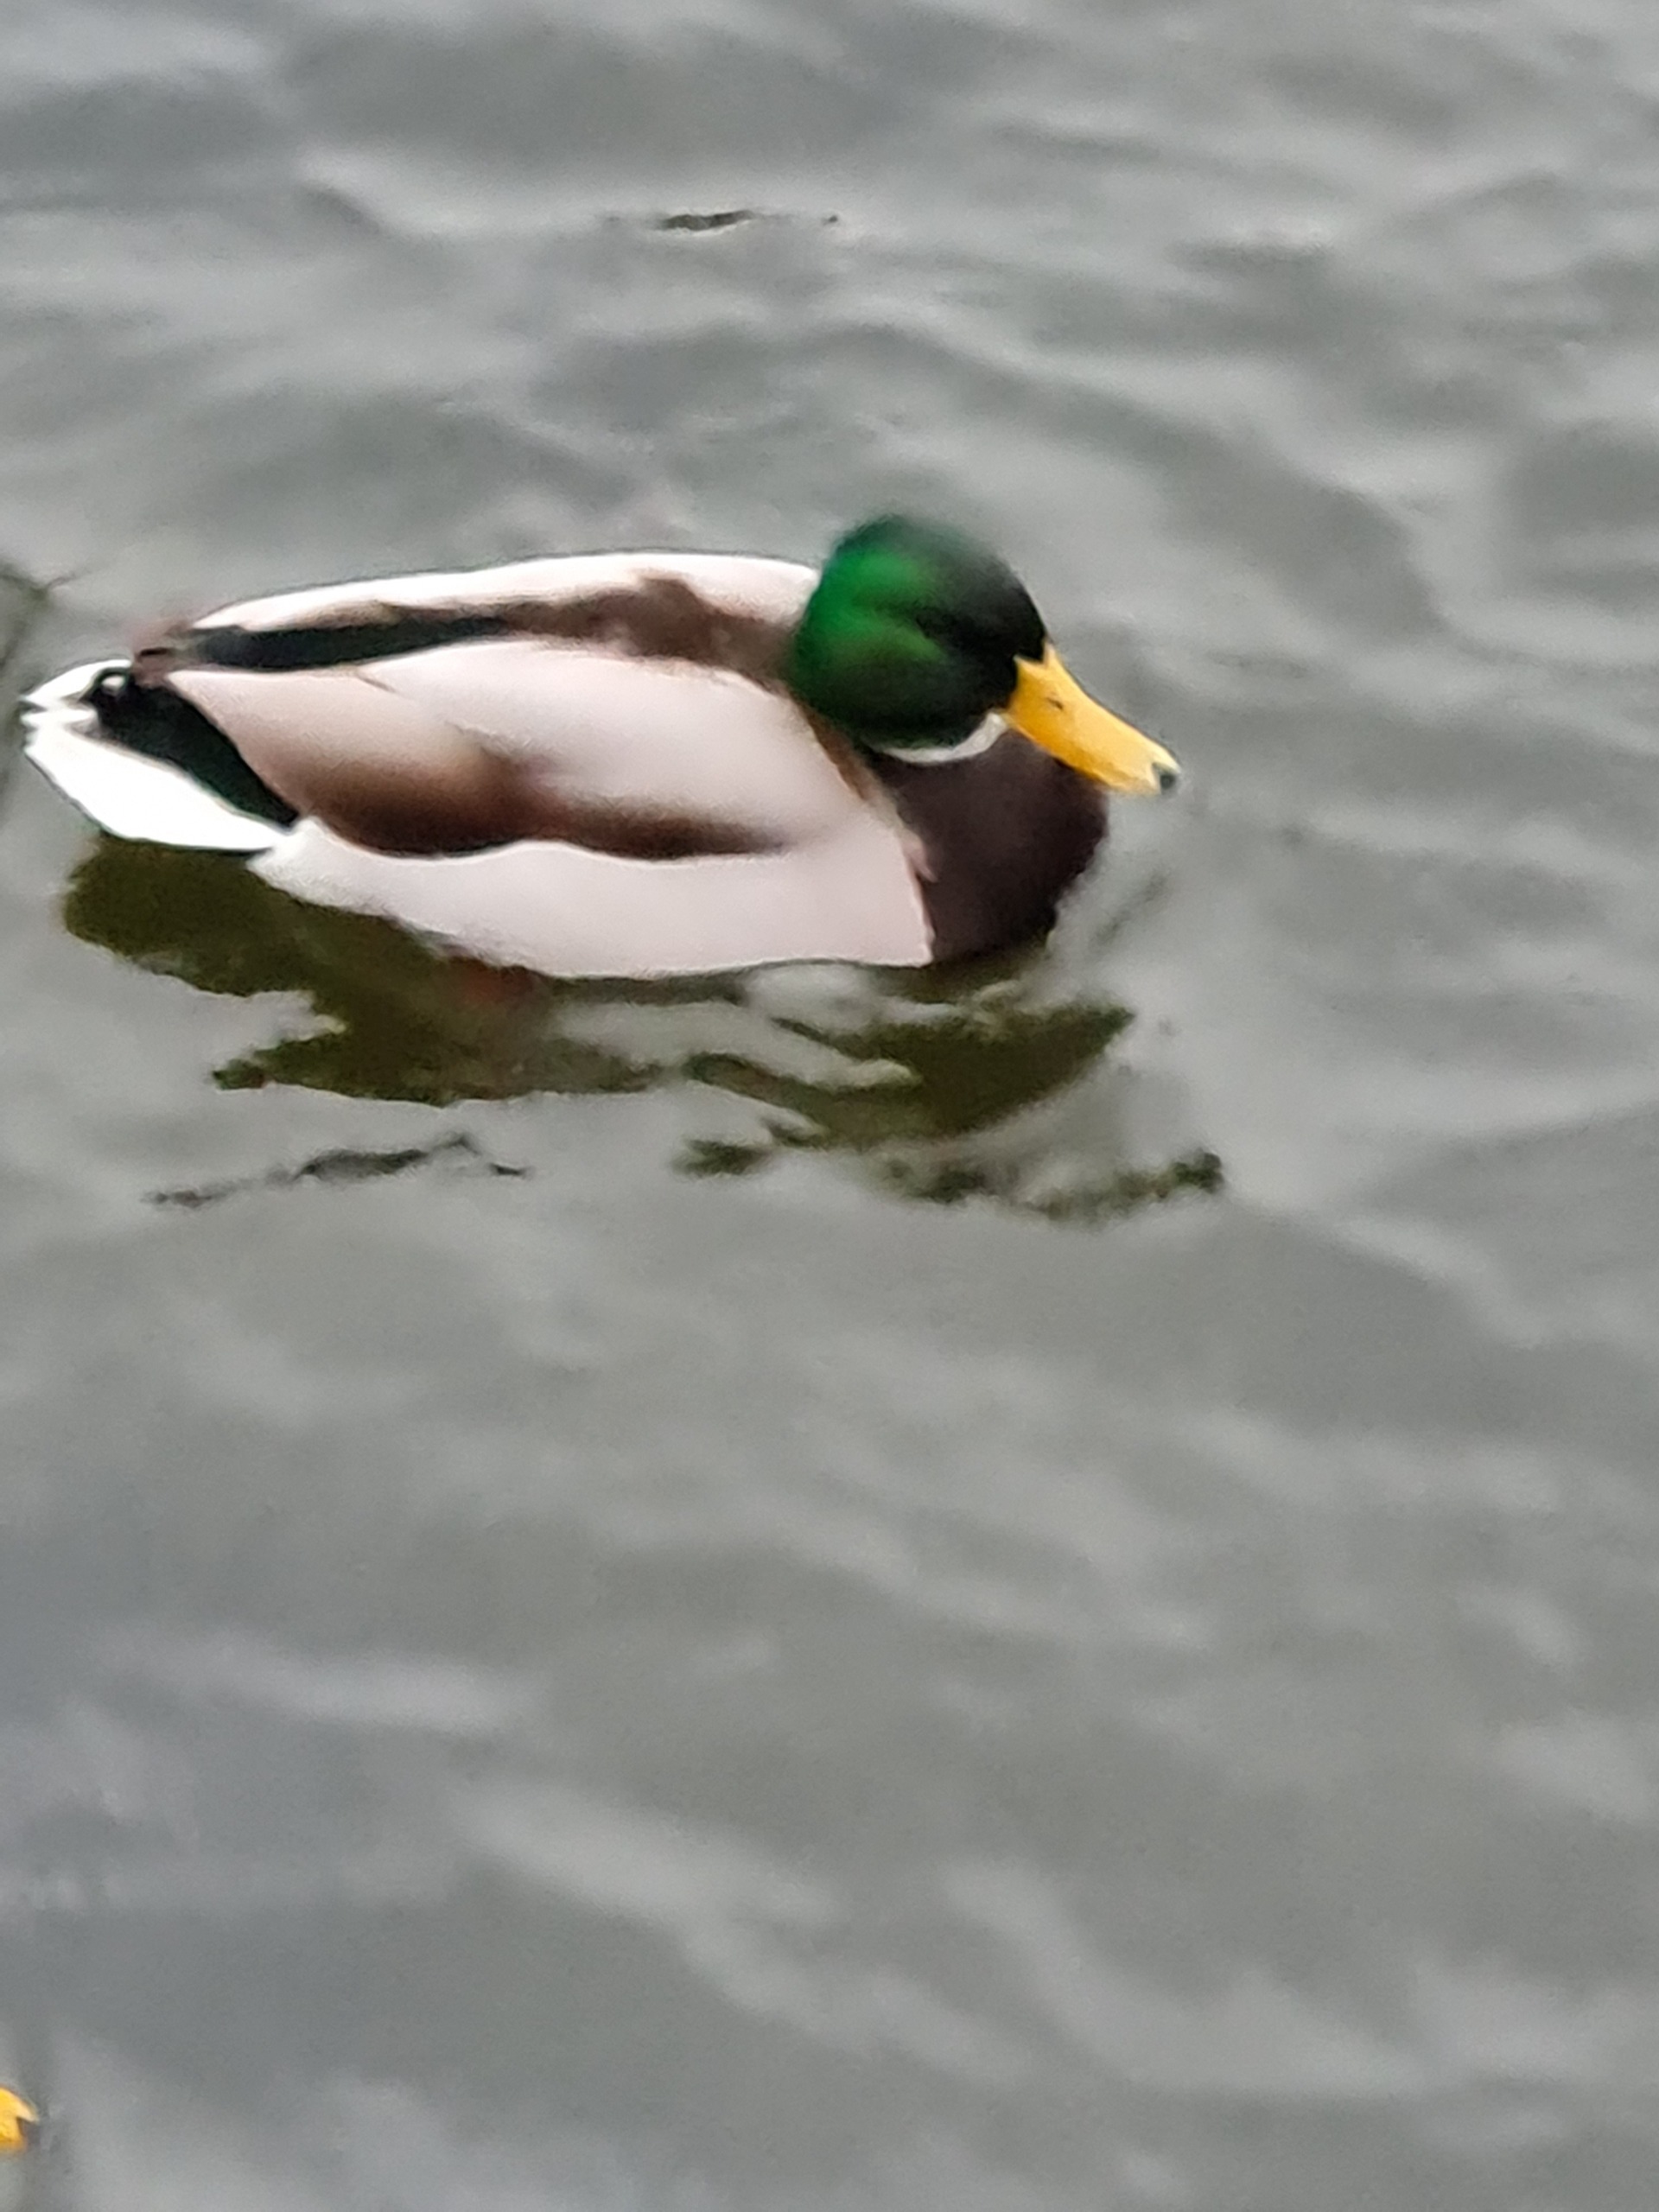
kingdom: Animalia
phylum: Chordata
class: Aves
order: Anseriformes
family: Anatidae
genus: Anas
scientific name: Anas platyrhynchos
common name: Gråand
